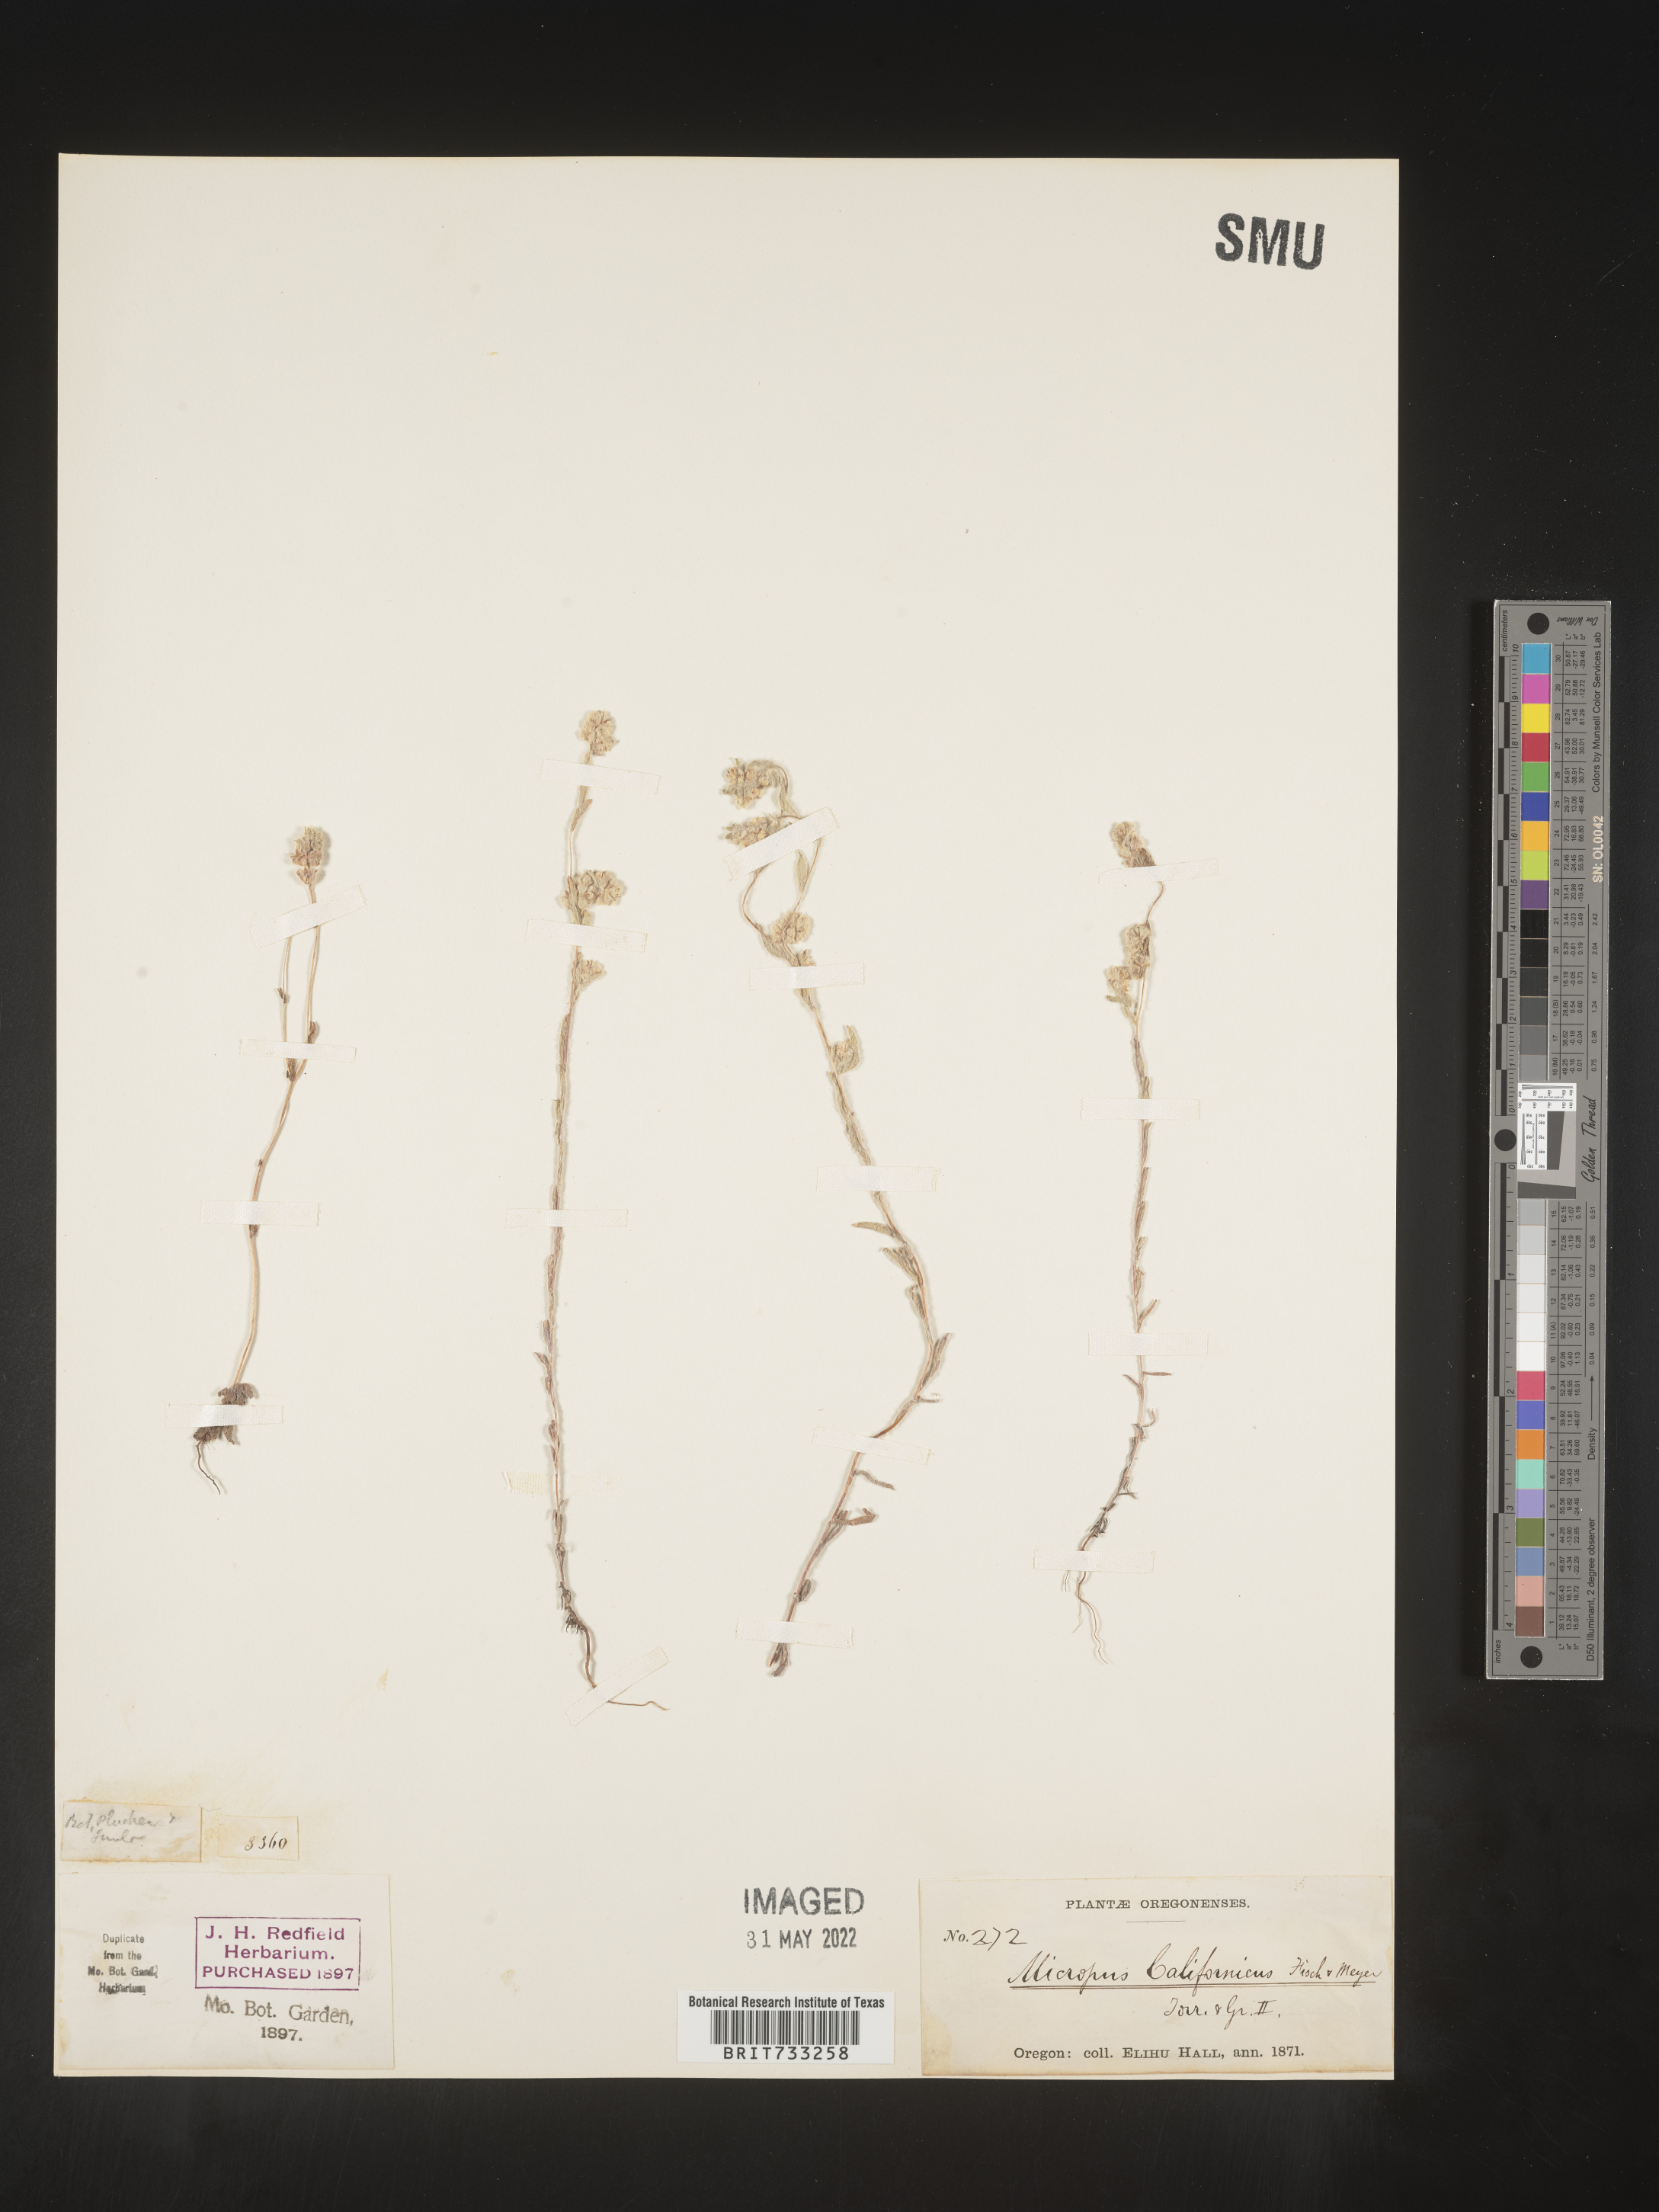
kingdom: Plantae
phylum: Tracheophyta
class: Magnoliopsida
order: Asterales
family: Asteraceae
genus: Micropus
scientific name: Micropus
